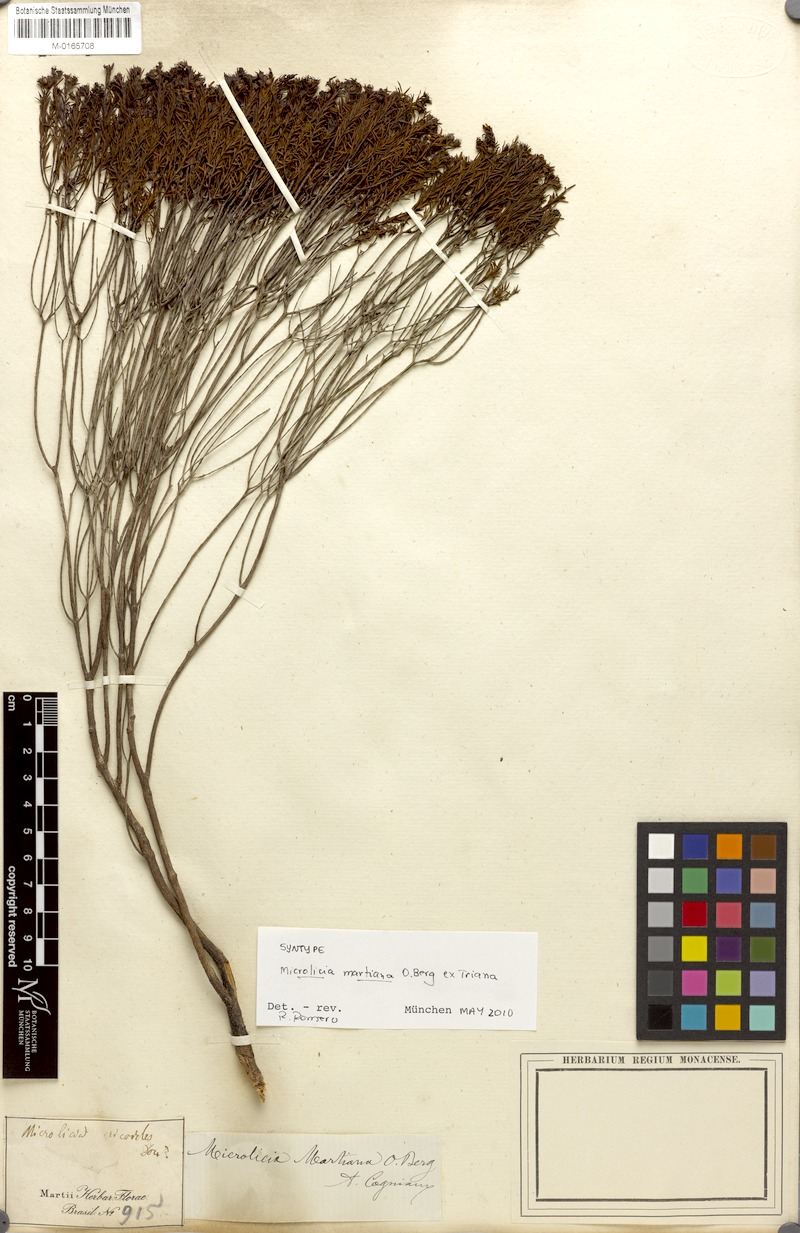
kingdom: Plantae
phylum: Tracheophyta
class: Magnoliopsida
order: Myrtales
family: Melastomataceae
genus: Microlicia
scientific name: Microlicia martiana
